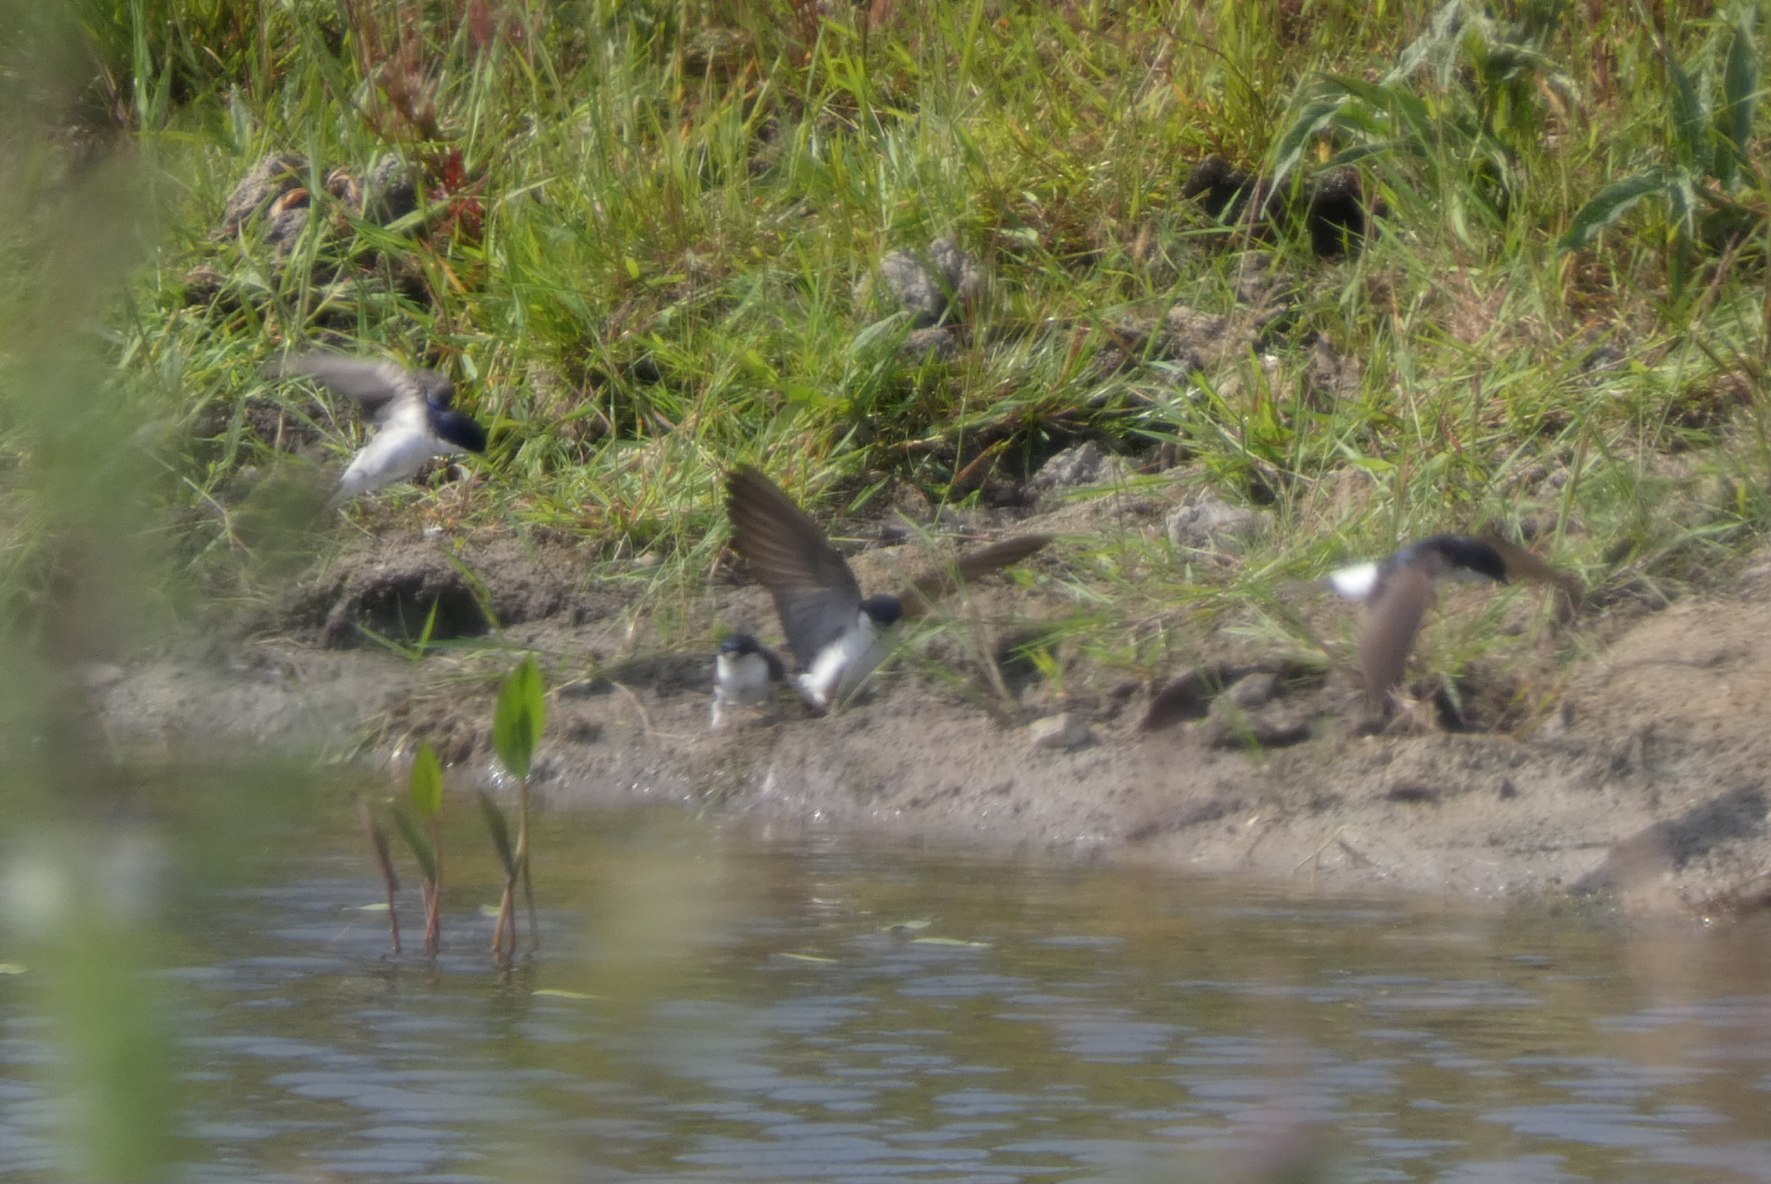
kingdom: Animalia
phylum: Chordata
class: Aves
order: Passeriformes
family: Hirundinidae
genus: Delichon
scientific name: Delichon urbicum
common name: Bysvale
